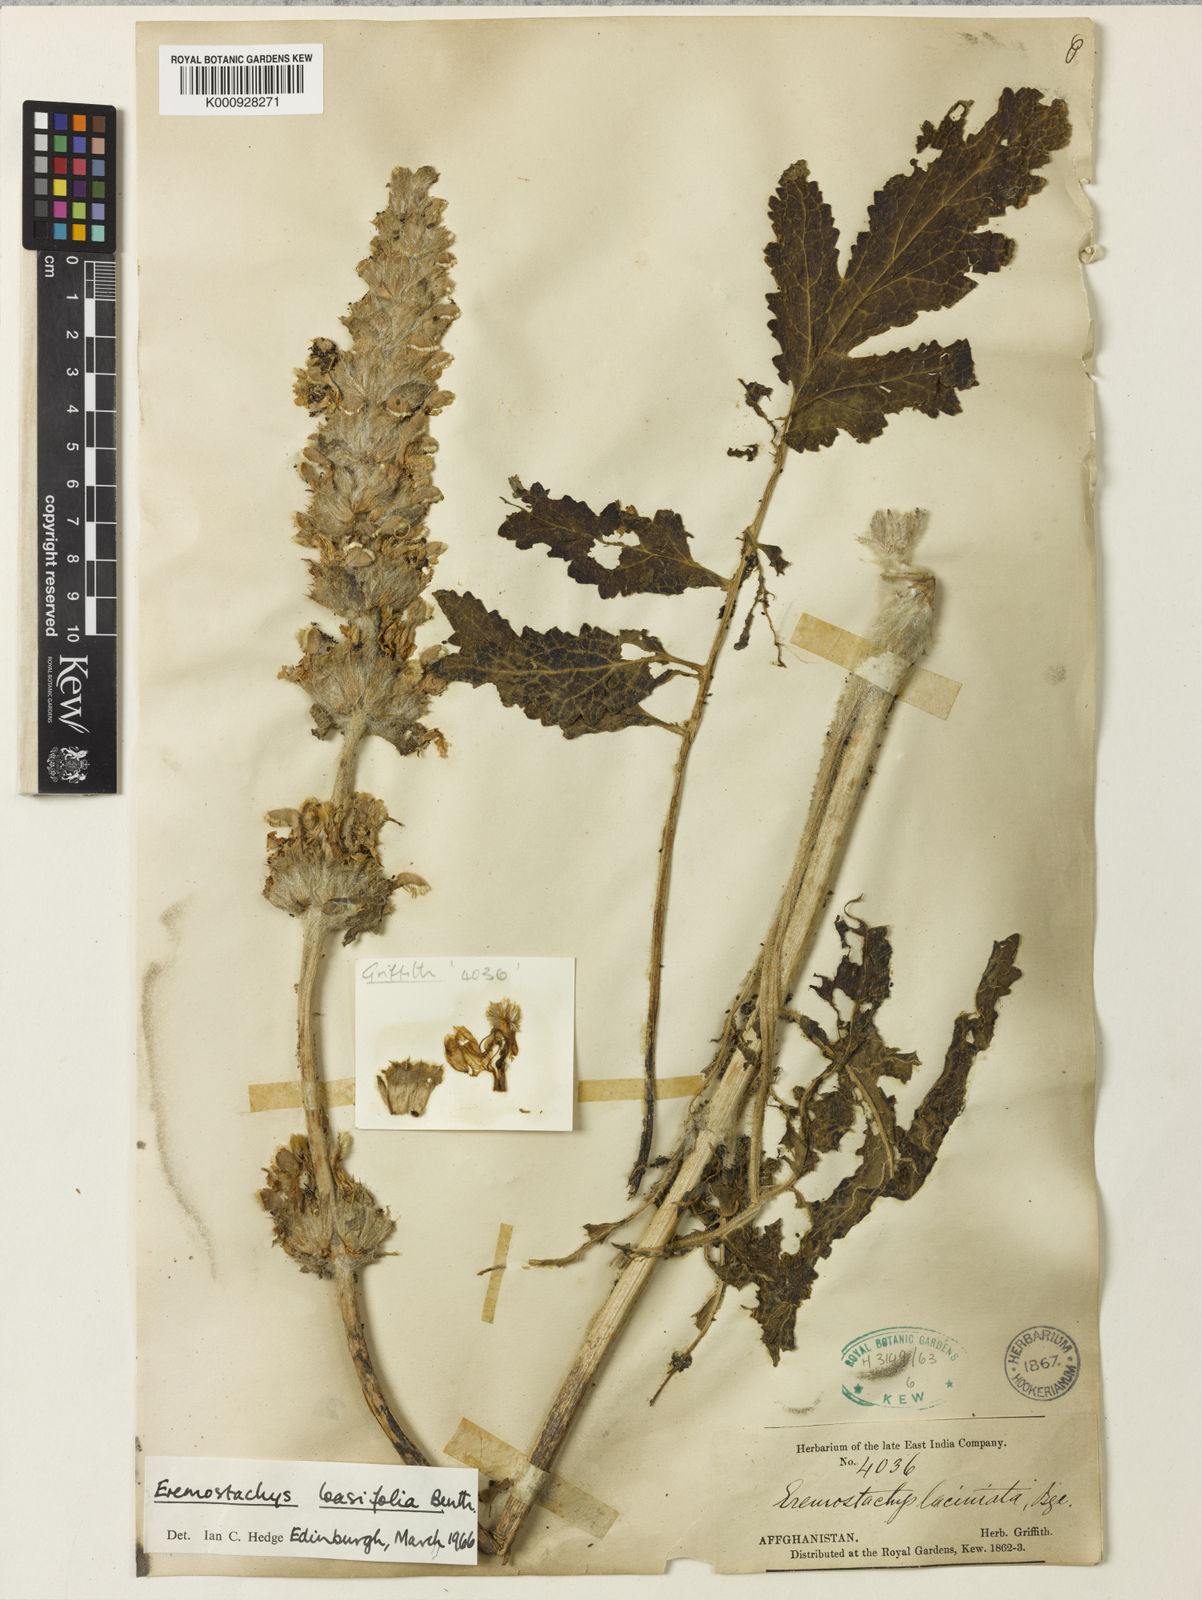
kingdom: Plantae
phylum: Tracheophyta
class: Magnoliopsida
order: Lamiales
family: Lamiaceae
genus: Phlomoides
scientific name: Phlomoides loasifolia
